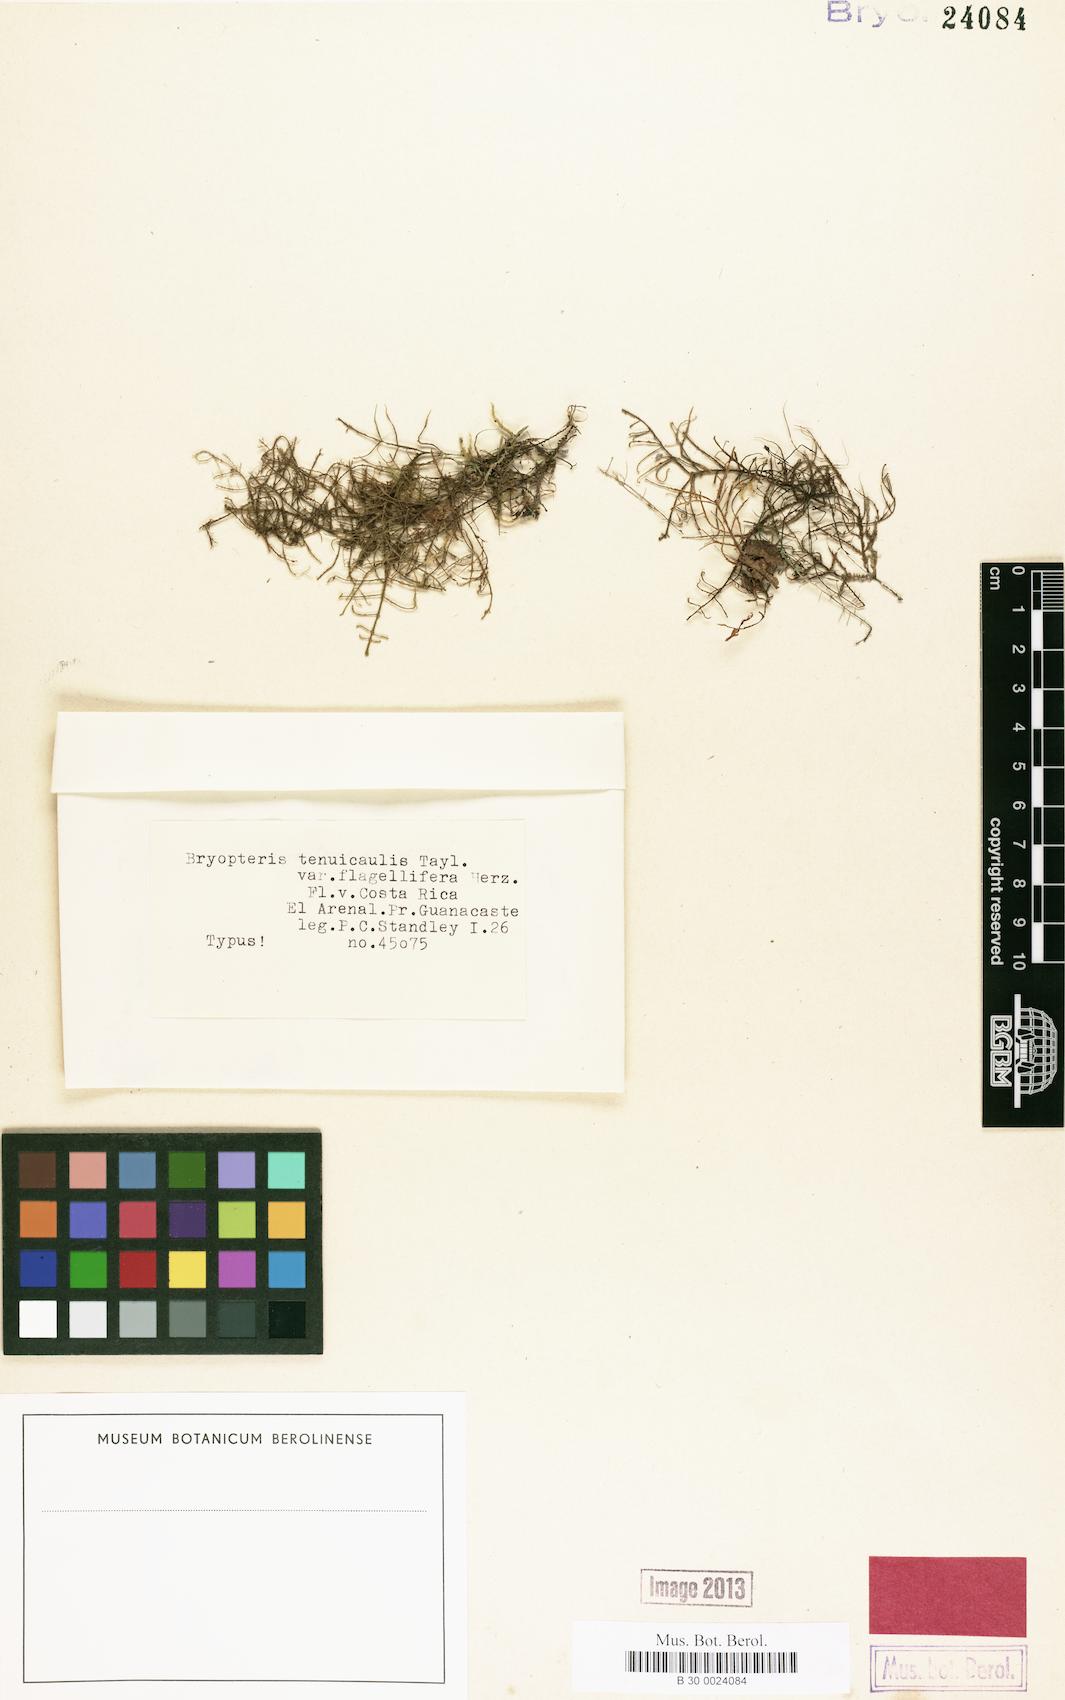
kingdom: Plantae
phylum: Marchantiophyta
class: Jungermanniopsida
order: Porellales
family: Lejeuneaceae
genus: Bryopteris
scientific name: Bryopteris filicina
